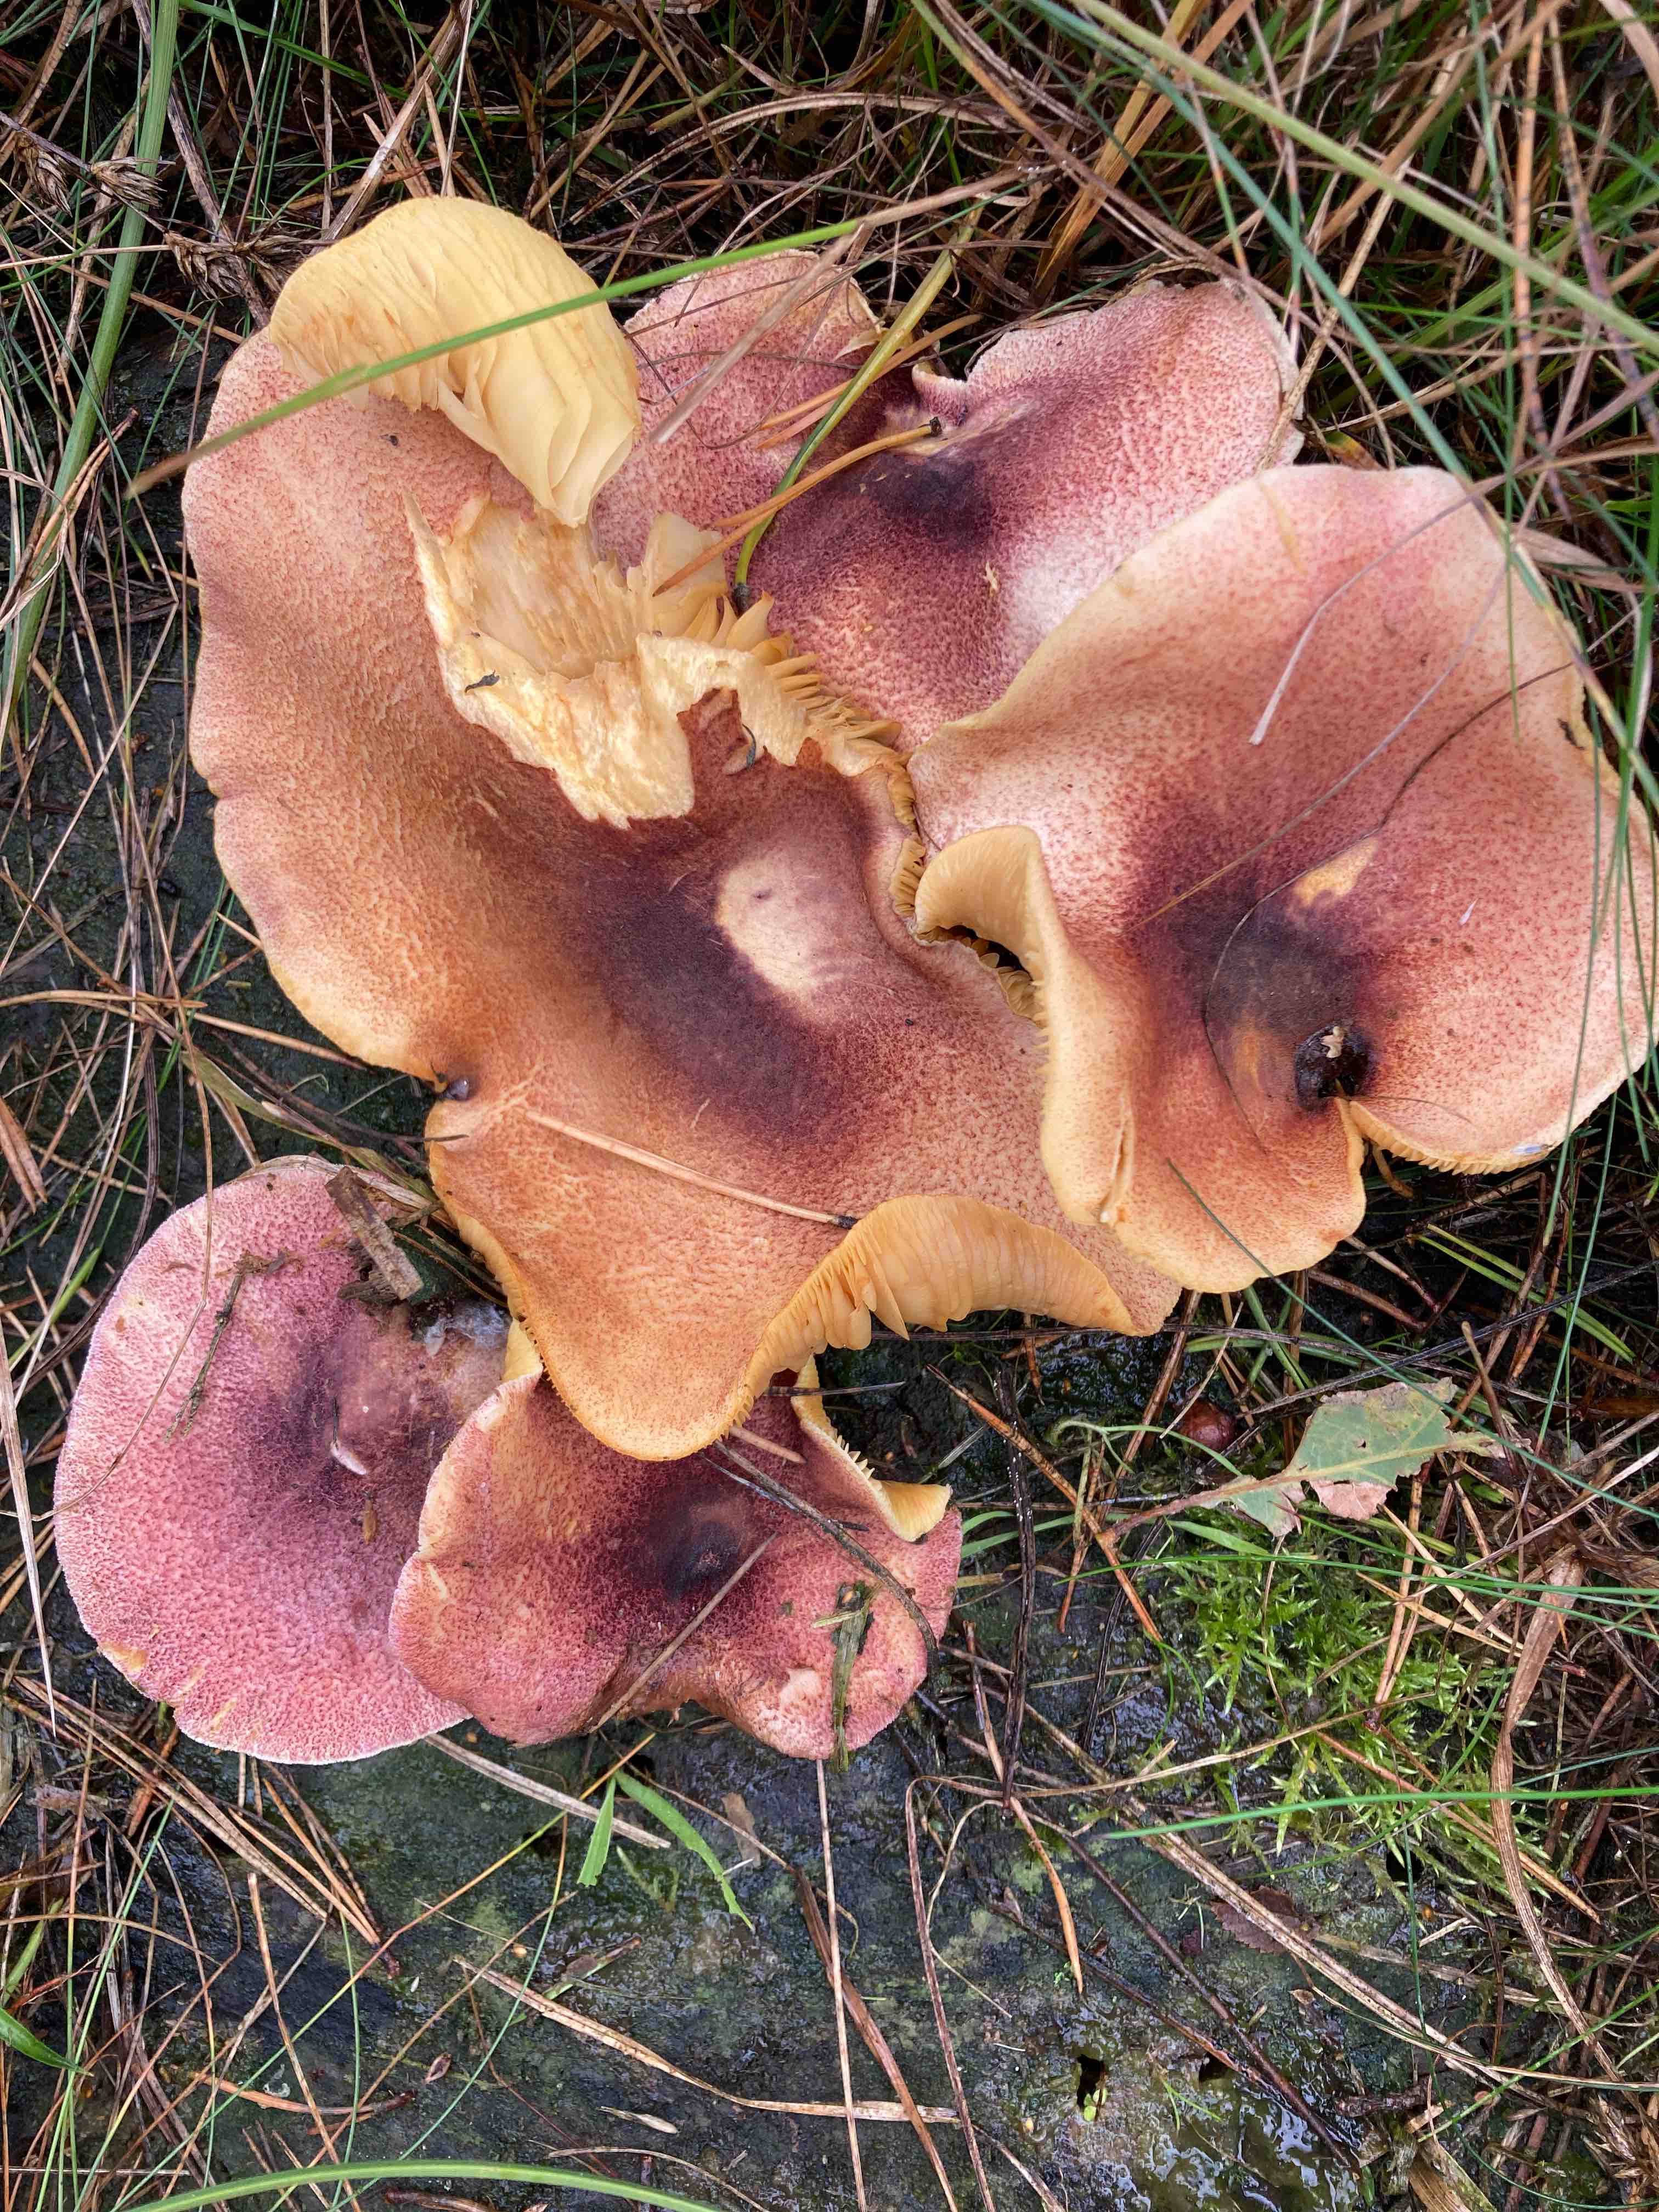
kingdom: Fungi
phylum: Basidiomycota
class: Agaricomycetes
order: Agaricales
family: Tricholomataceae
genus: Tricholomopsis
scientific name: Tricholomopsis rutilans
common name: purpur-væbnerhat
